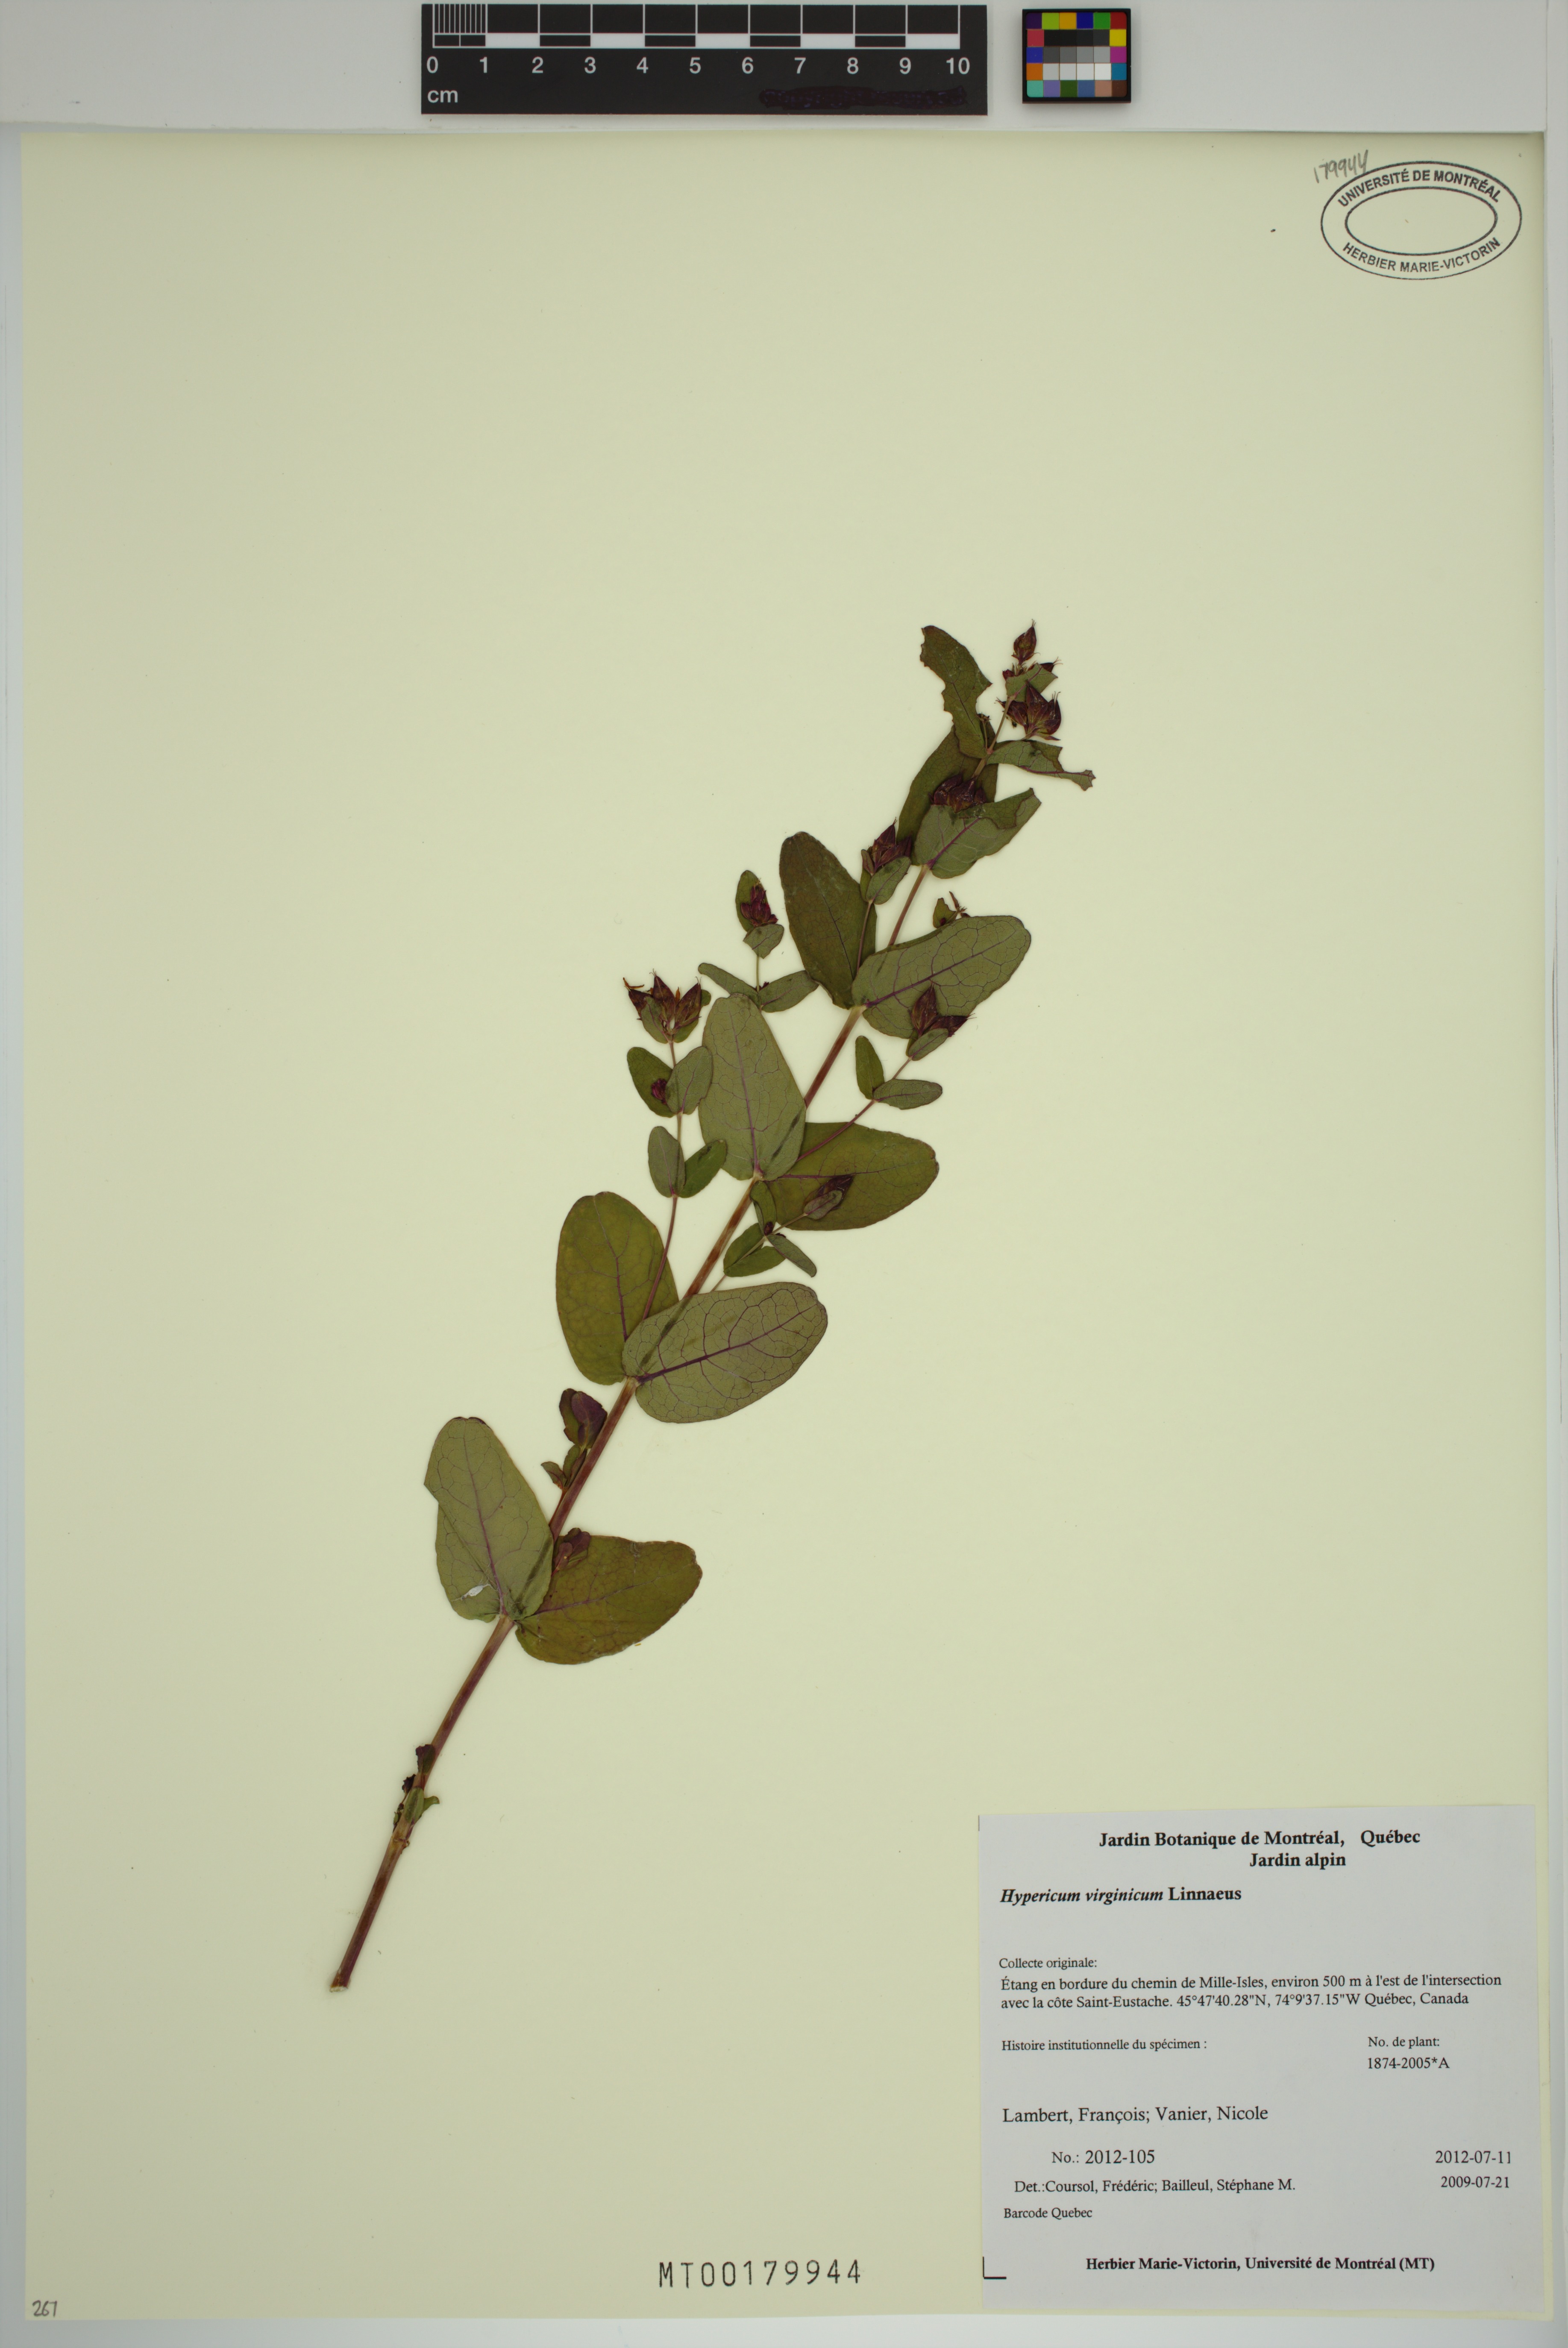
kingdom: Plantae
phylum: Tracheophyta
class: Magnoliopsida
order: Malpighiales
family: Hypericaceae
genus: Triadenum
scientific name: Triadenum virginicum
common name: Marsh st. john's-wort
